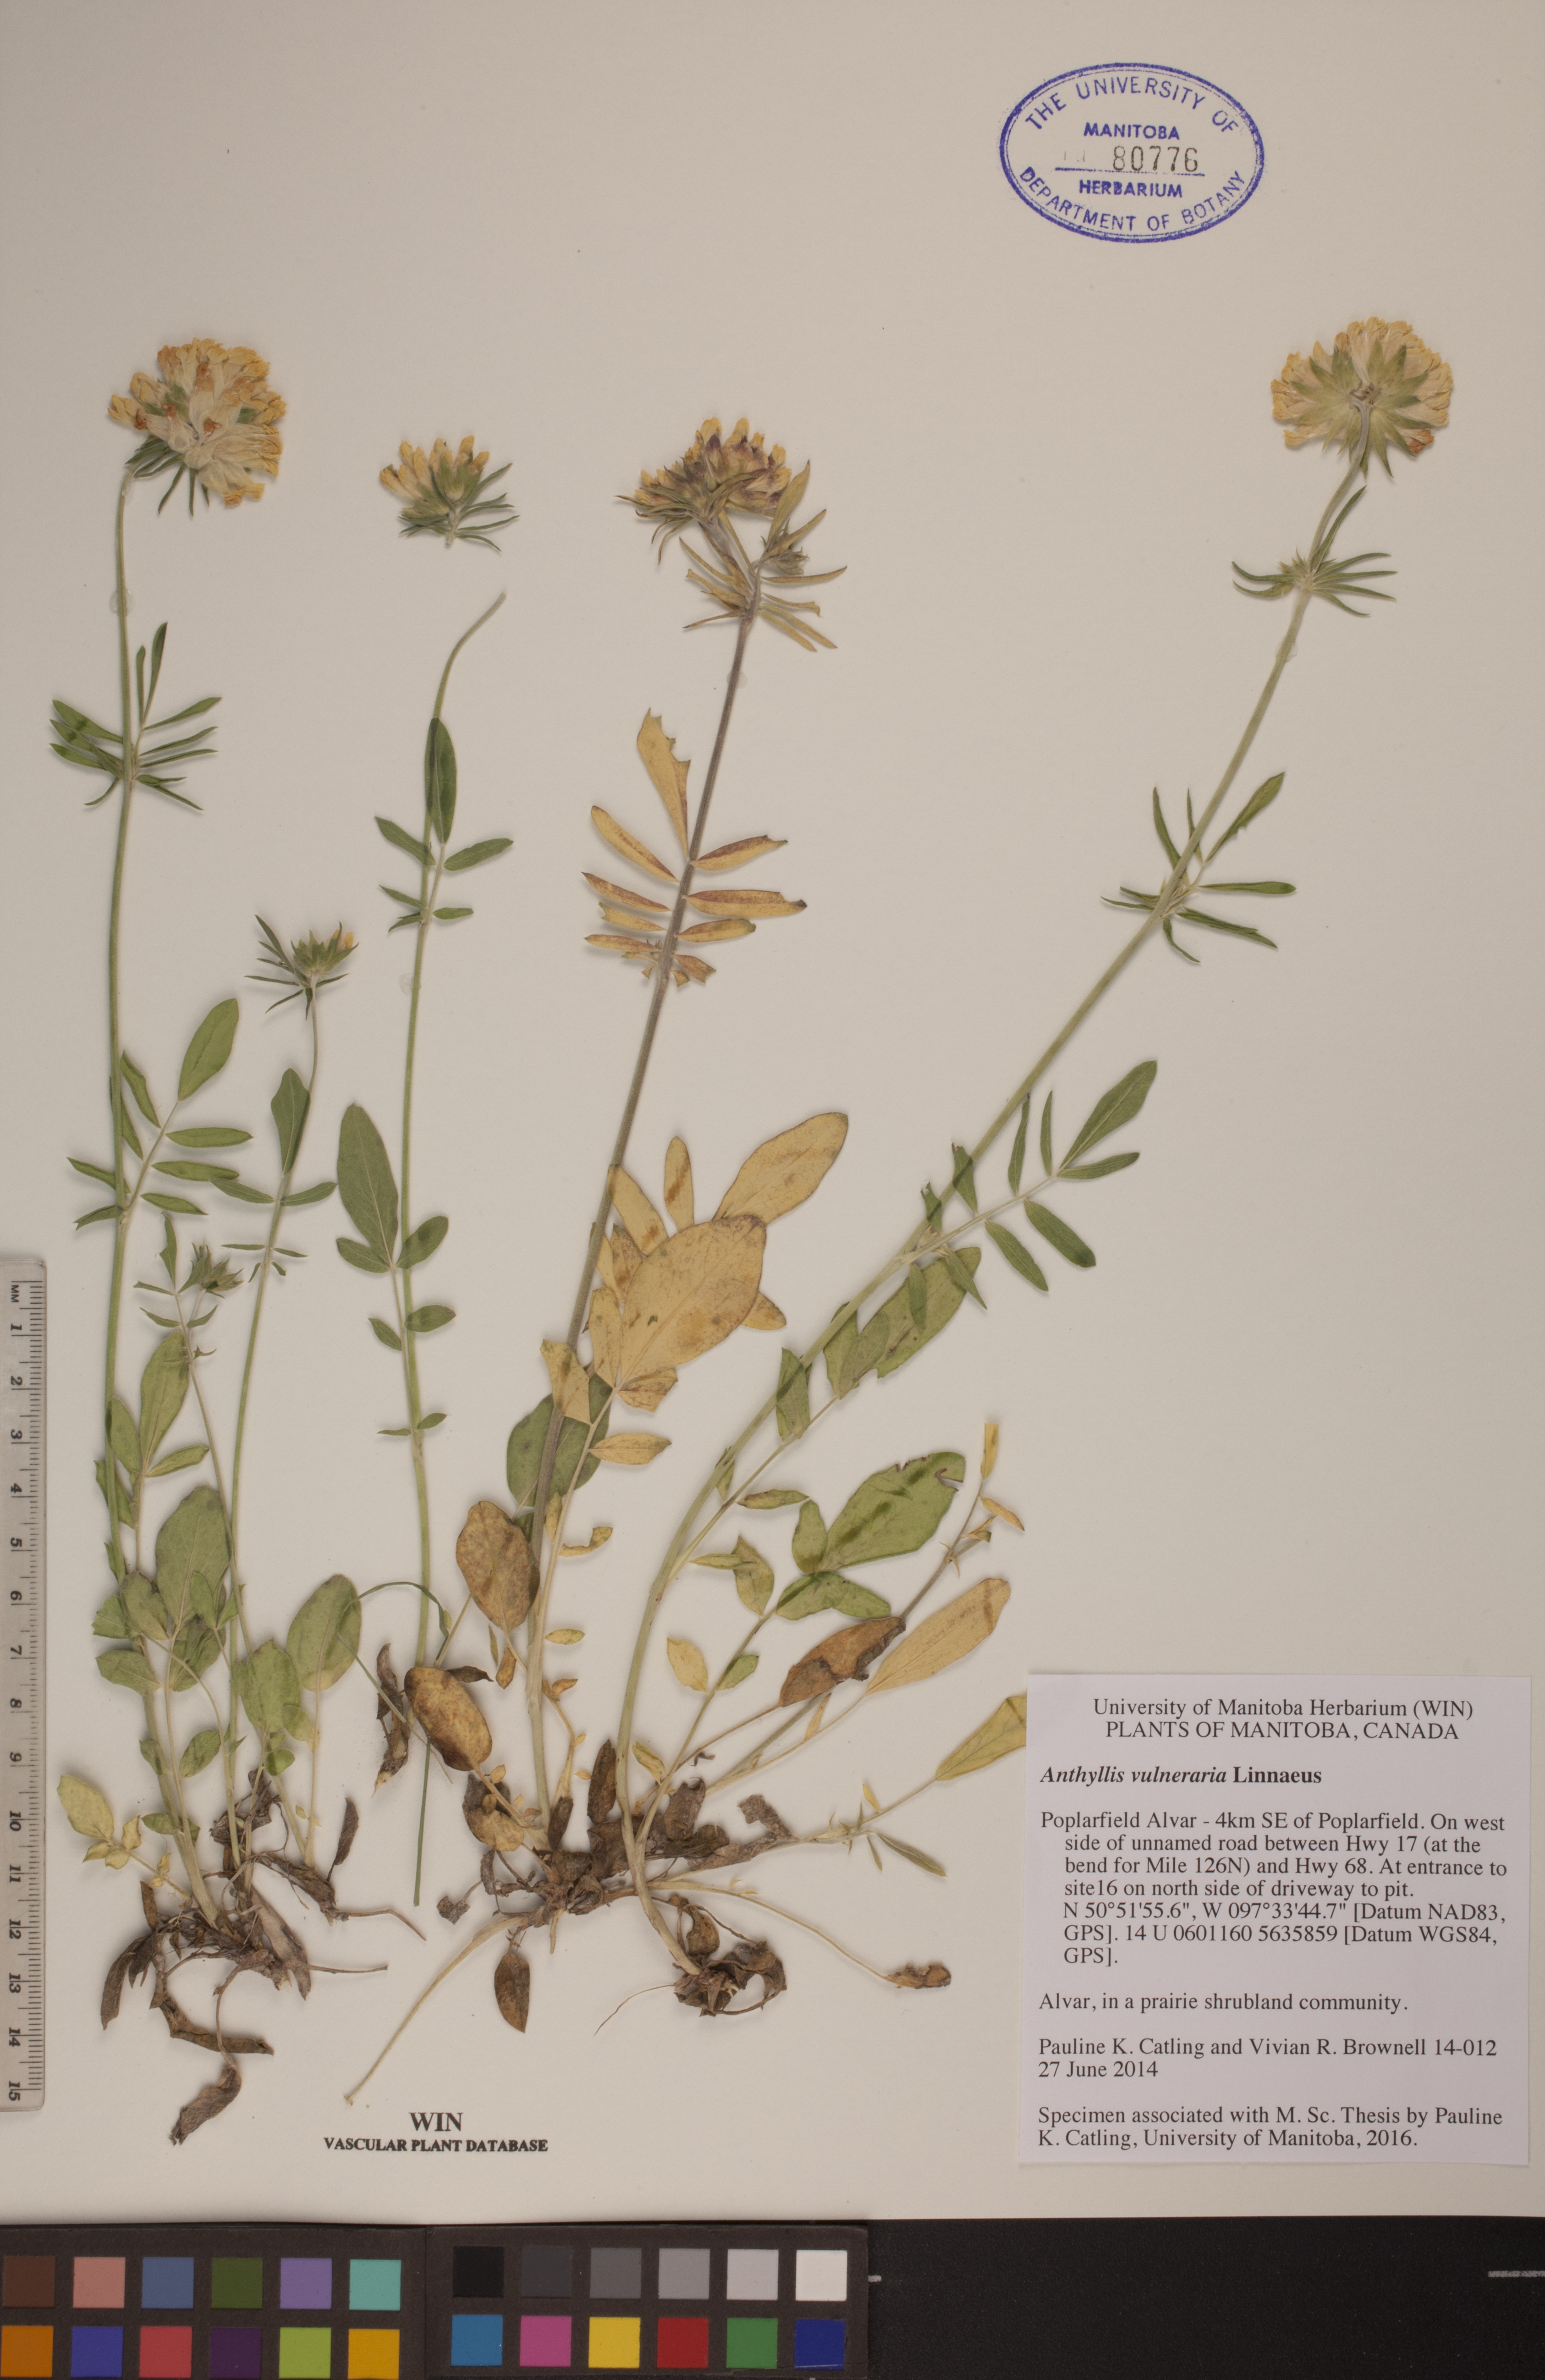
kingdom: Plantae
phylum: Tracheophyta
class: Magnoliopsida
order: Fabales
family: Fabaceae
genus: Anthyllis
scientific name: Anthyllis vulneraria
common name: Kidney vetch
